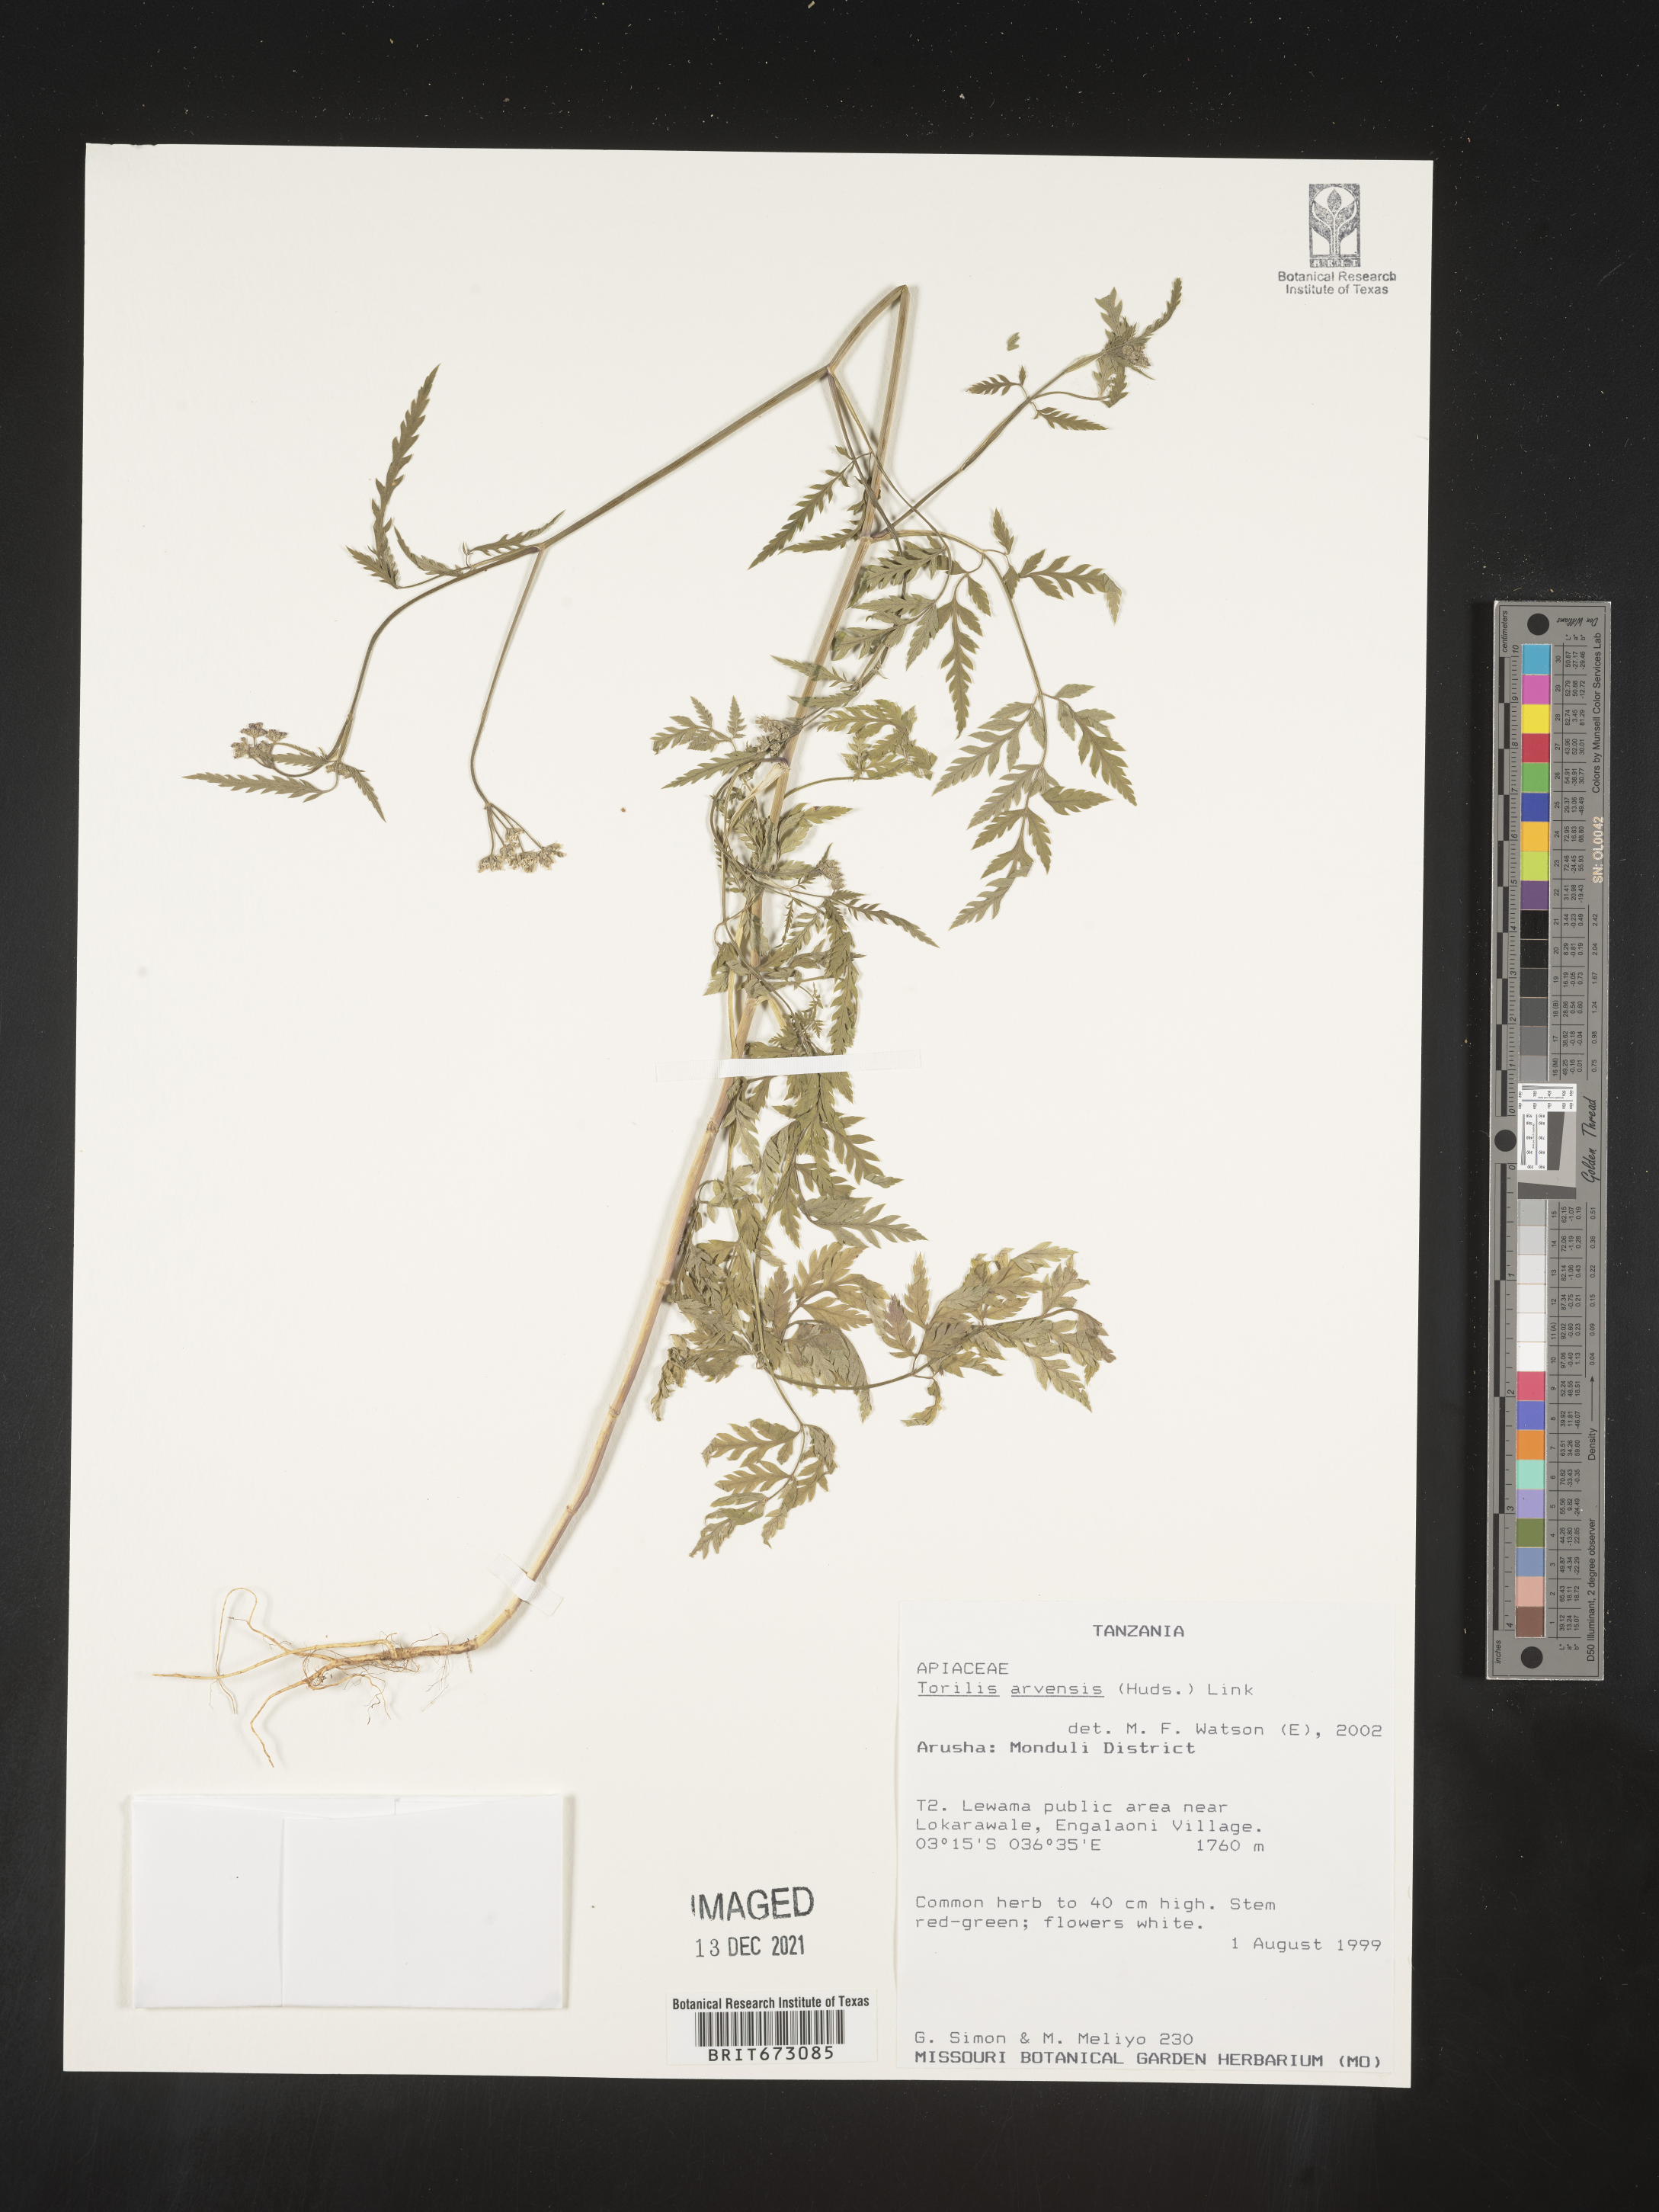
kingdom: Plantae
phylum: Tracheophyta
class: Magnoliopsida
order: Apiales
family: Apiaceae
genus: Torilis
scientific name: Torilis
